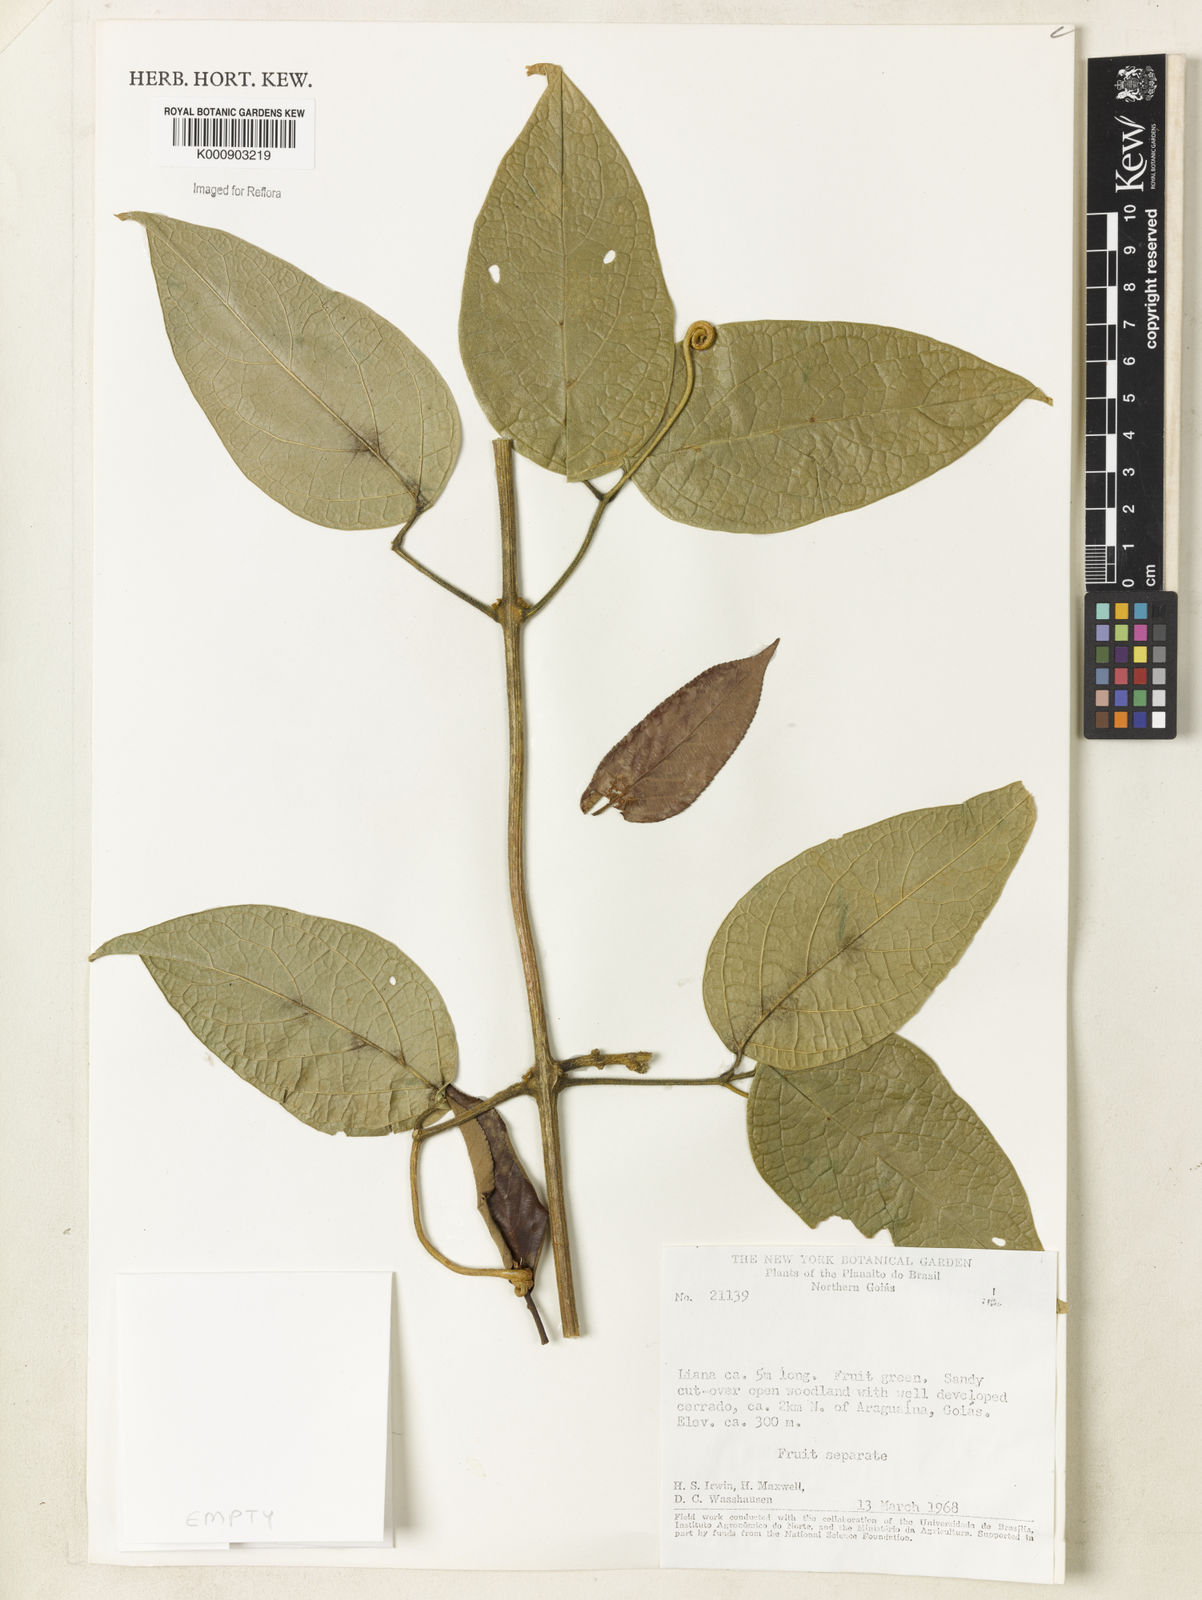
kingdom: Plantae
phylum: Tracheophyta
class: Magnoliopsida
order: Lamiales
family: Bignoniaceae
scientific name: Bignoniaceae
